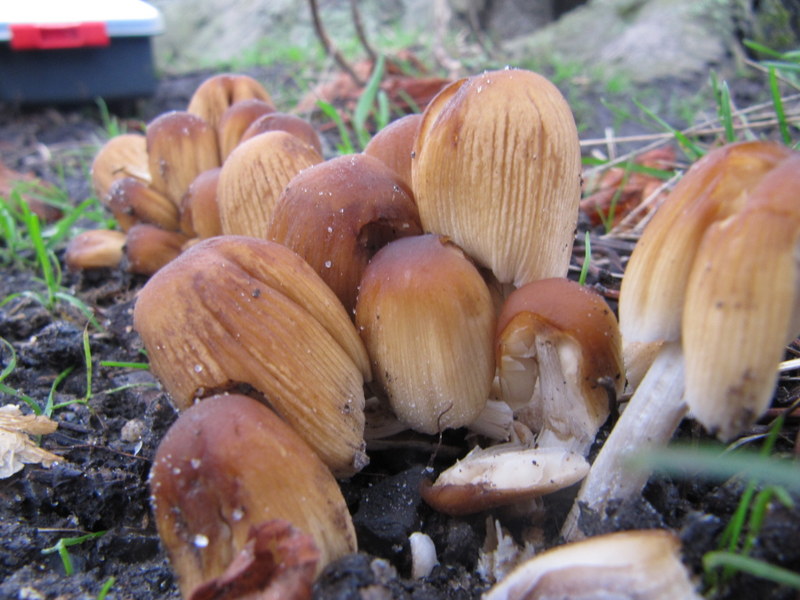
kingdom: Fungi
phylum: Basidiomycota
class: Agaricomycetes
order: Agaricales
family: Psathyrellaceae
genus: Coprinellus
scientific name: Coprinellus micaceus
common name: glimmer-blækhat
